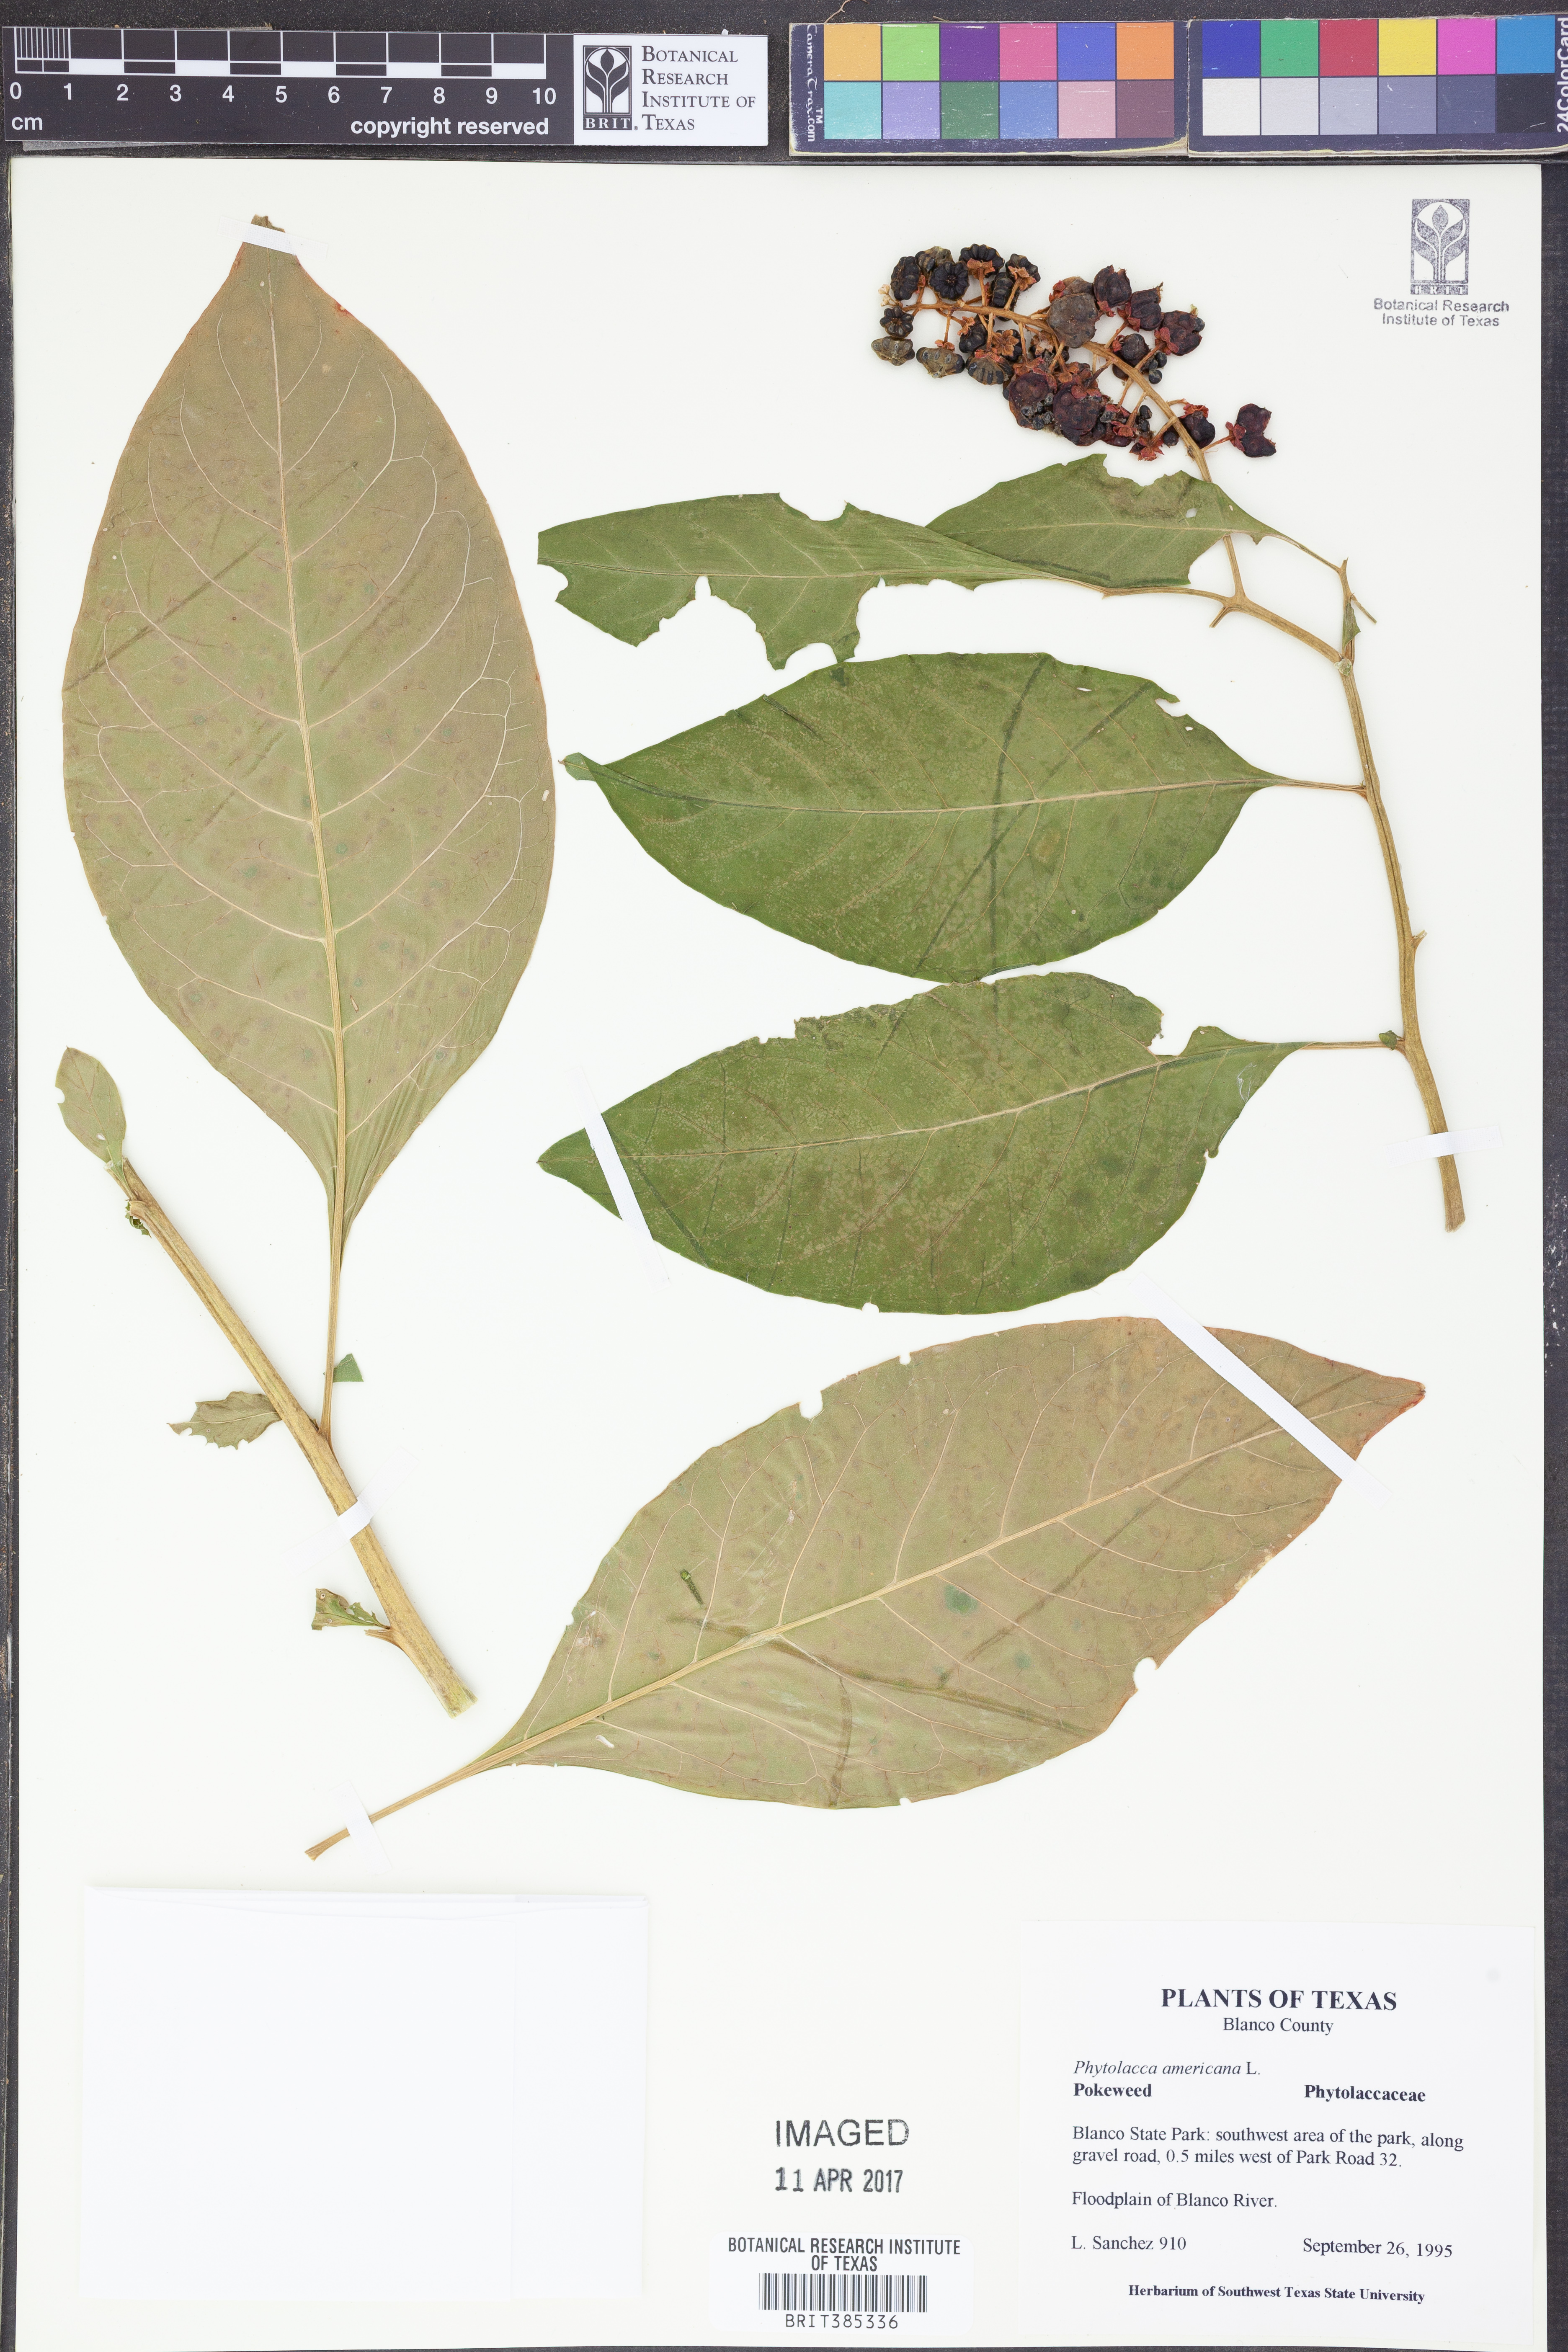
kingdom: Plantae
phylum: Tracheophyta
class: Magnoliopsida
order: Caryophyllales
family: Phytolaccaceae
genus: Phytolacca
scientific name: Phytolacca americana
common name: American pokeweed
